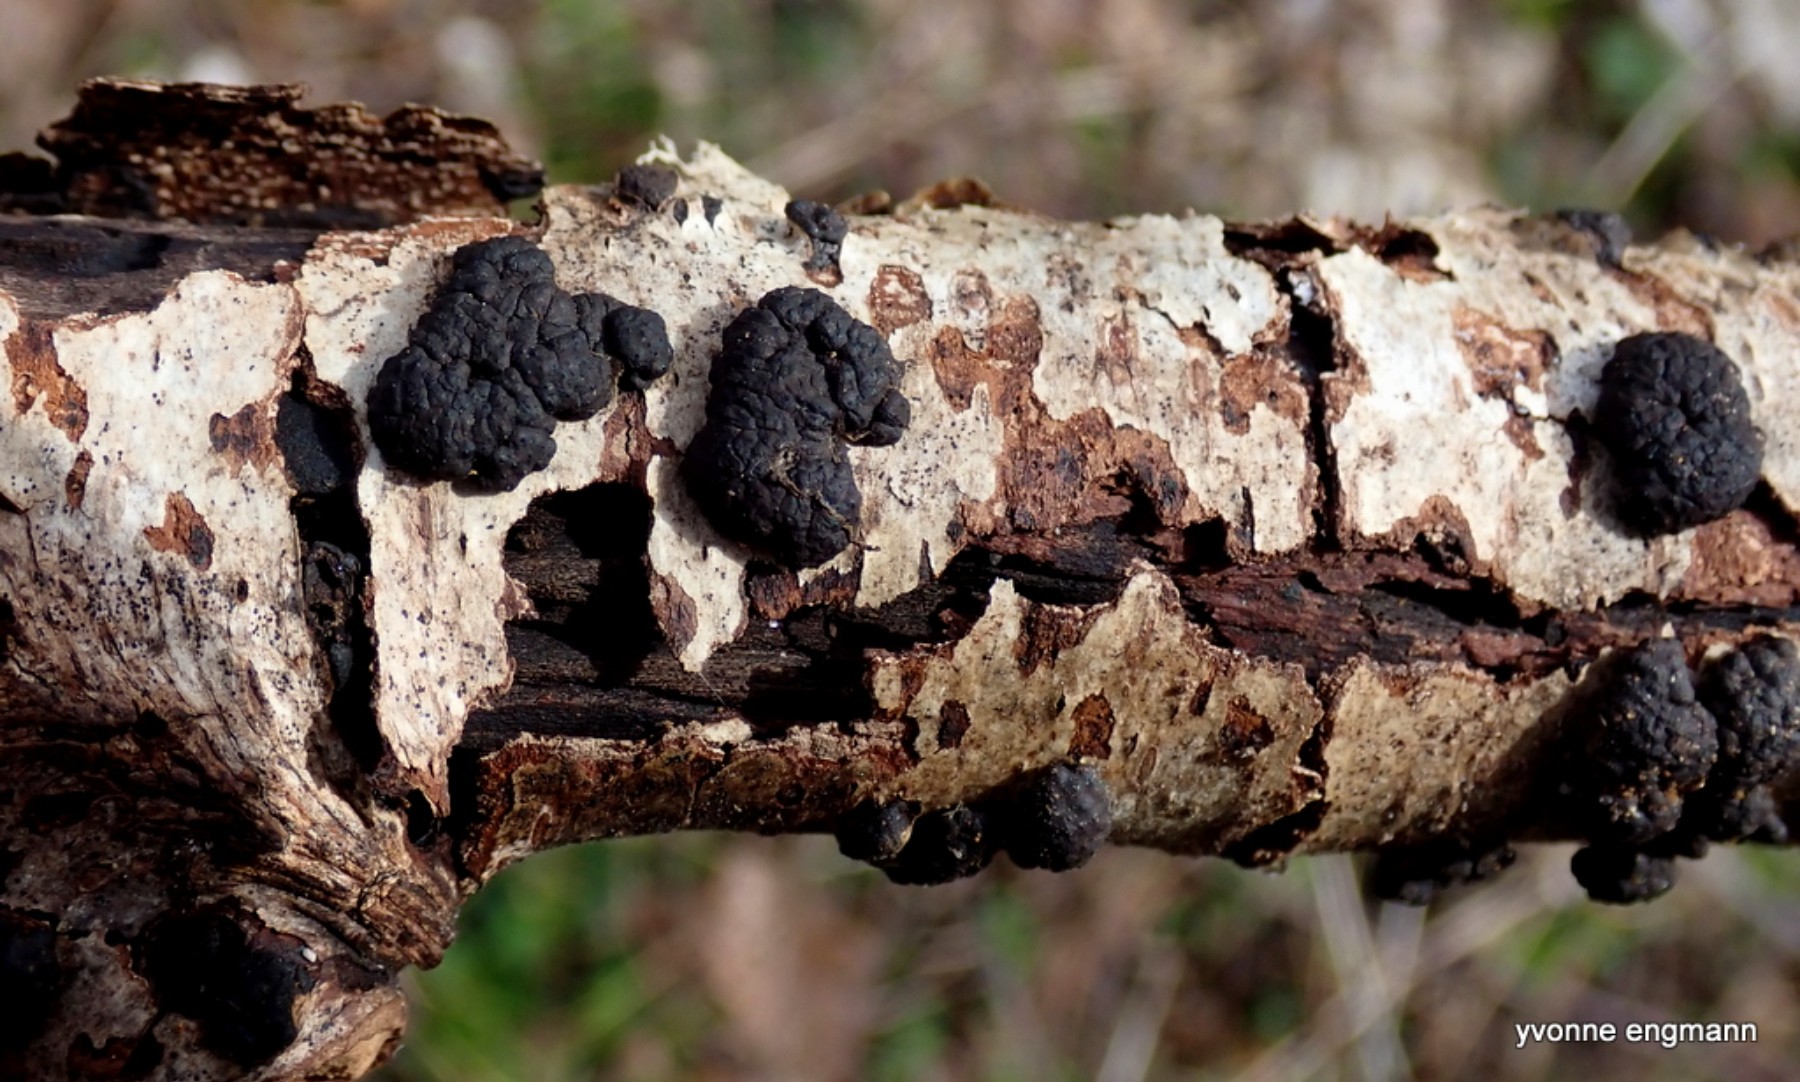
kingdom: Fungi
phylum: Ascomycota
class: Sordariomycetes
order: Xylariales
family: Hypoxylaceae
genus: Jackrogersella
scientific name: Jackrogersella multiformis
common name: foranderlig kulbær
